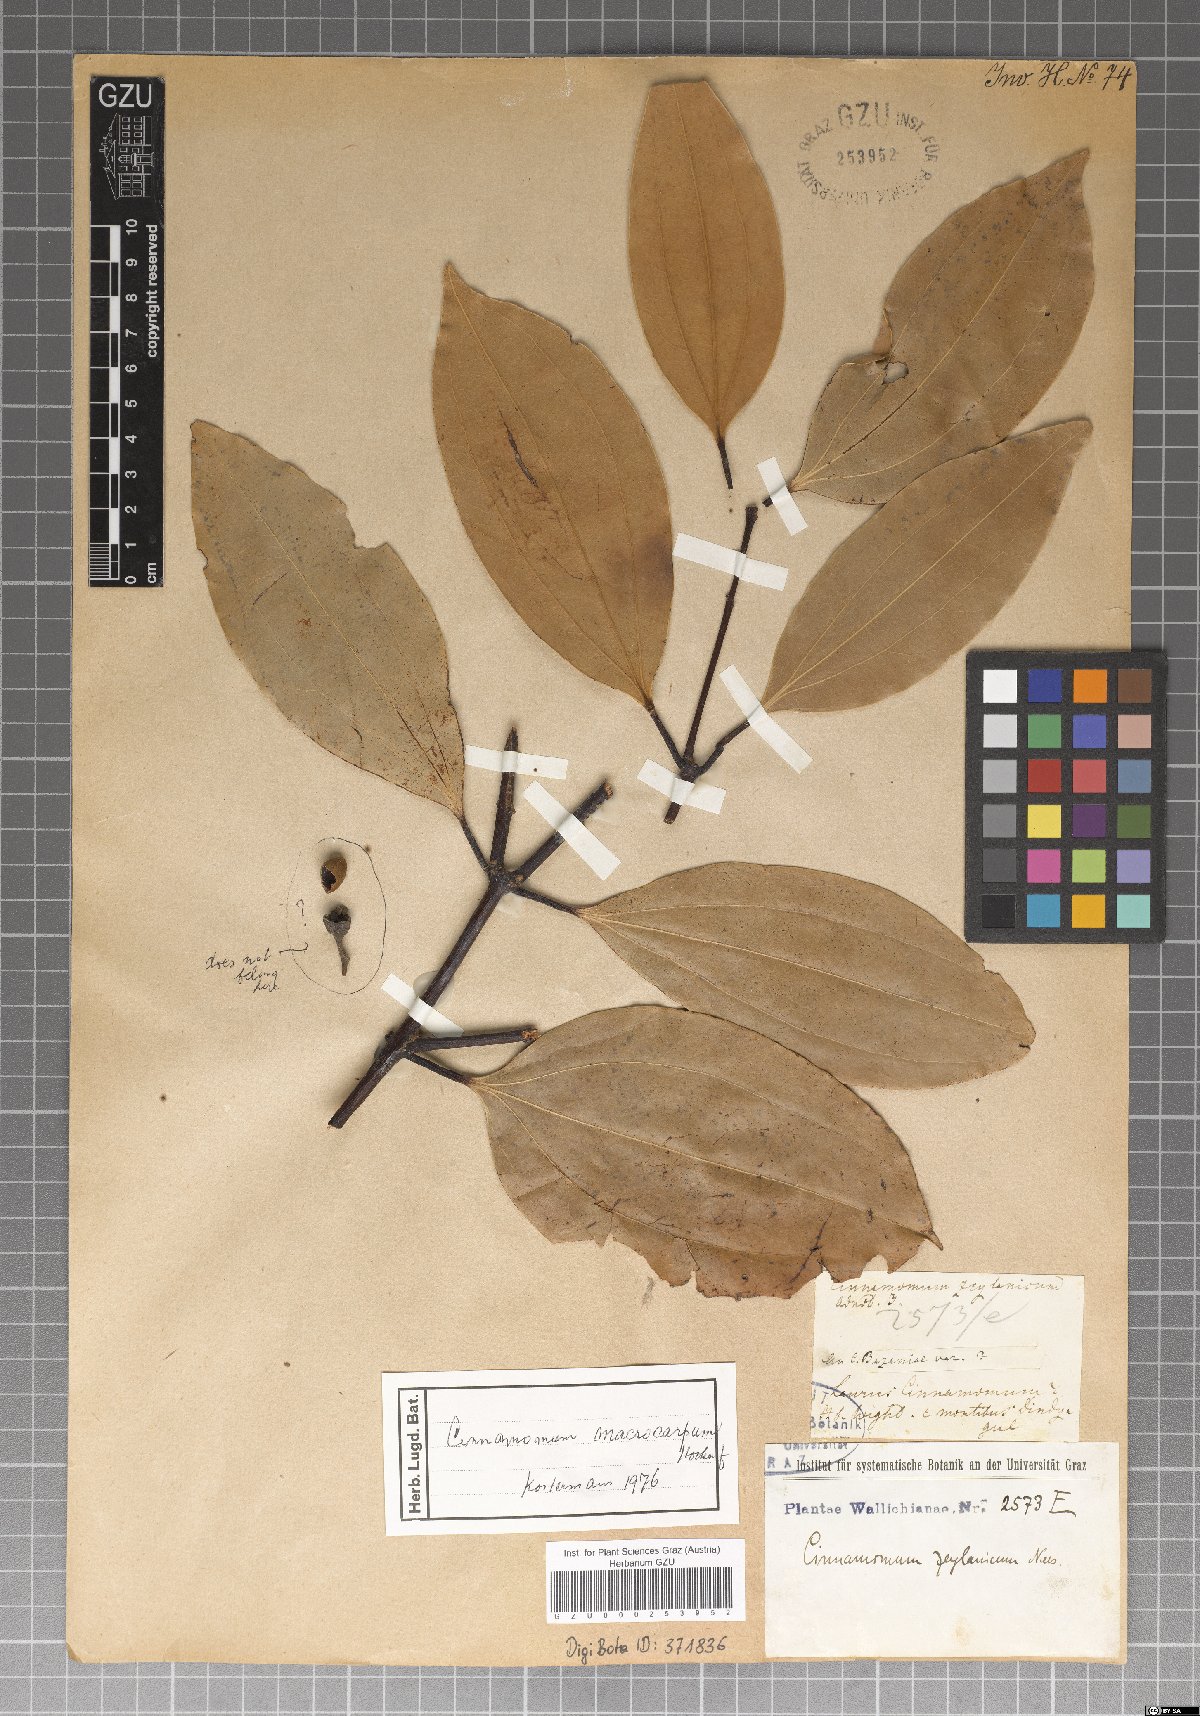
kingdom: Plantae
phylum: Tracheophyta
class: Magnoliopsida
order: Laurales
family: Lauraceae
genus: Cinnamomum
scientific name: Cinnamomum macrocarpum
